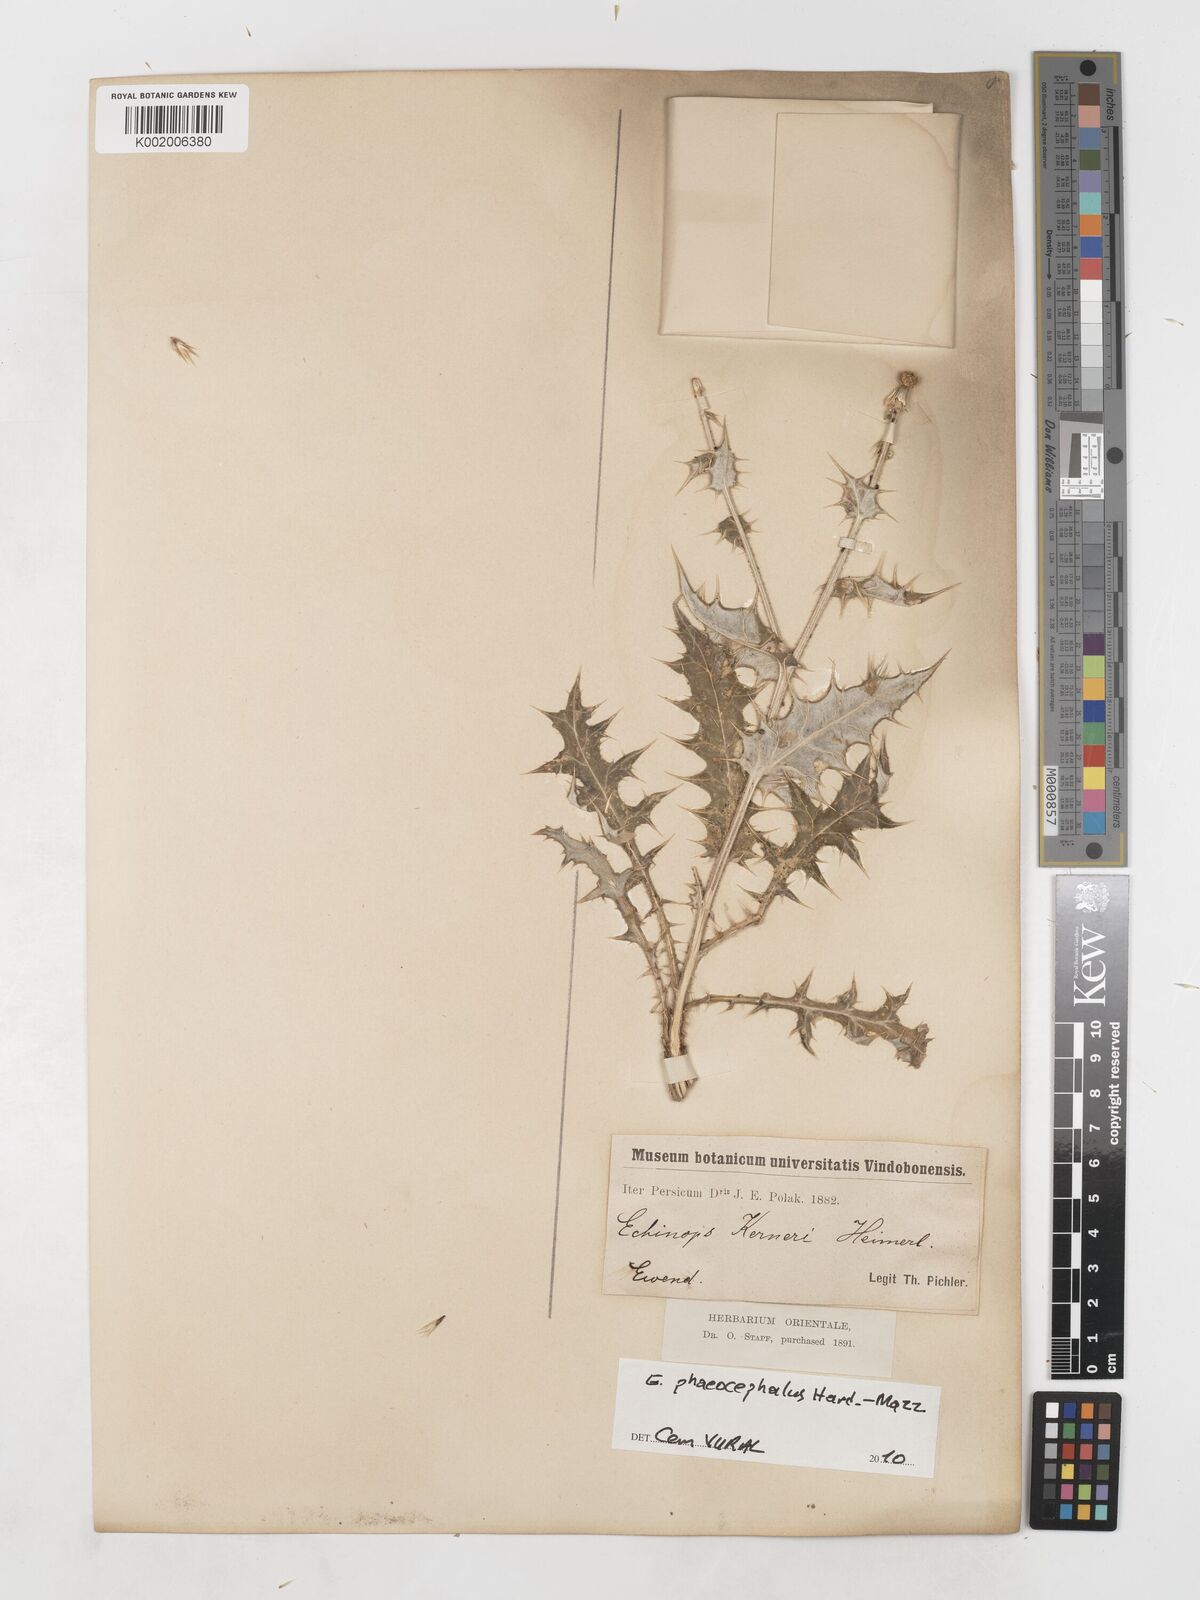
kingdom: Plantae
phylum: Tracheophyta
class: Magnoliopsida
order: Asterales
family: Asteraceae
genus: Echinops
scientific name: Echinops ritrodes
